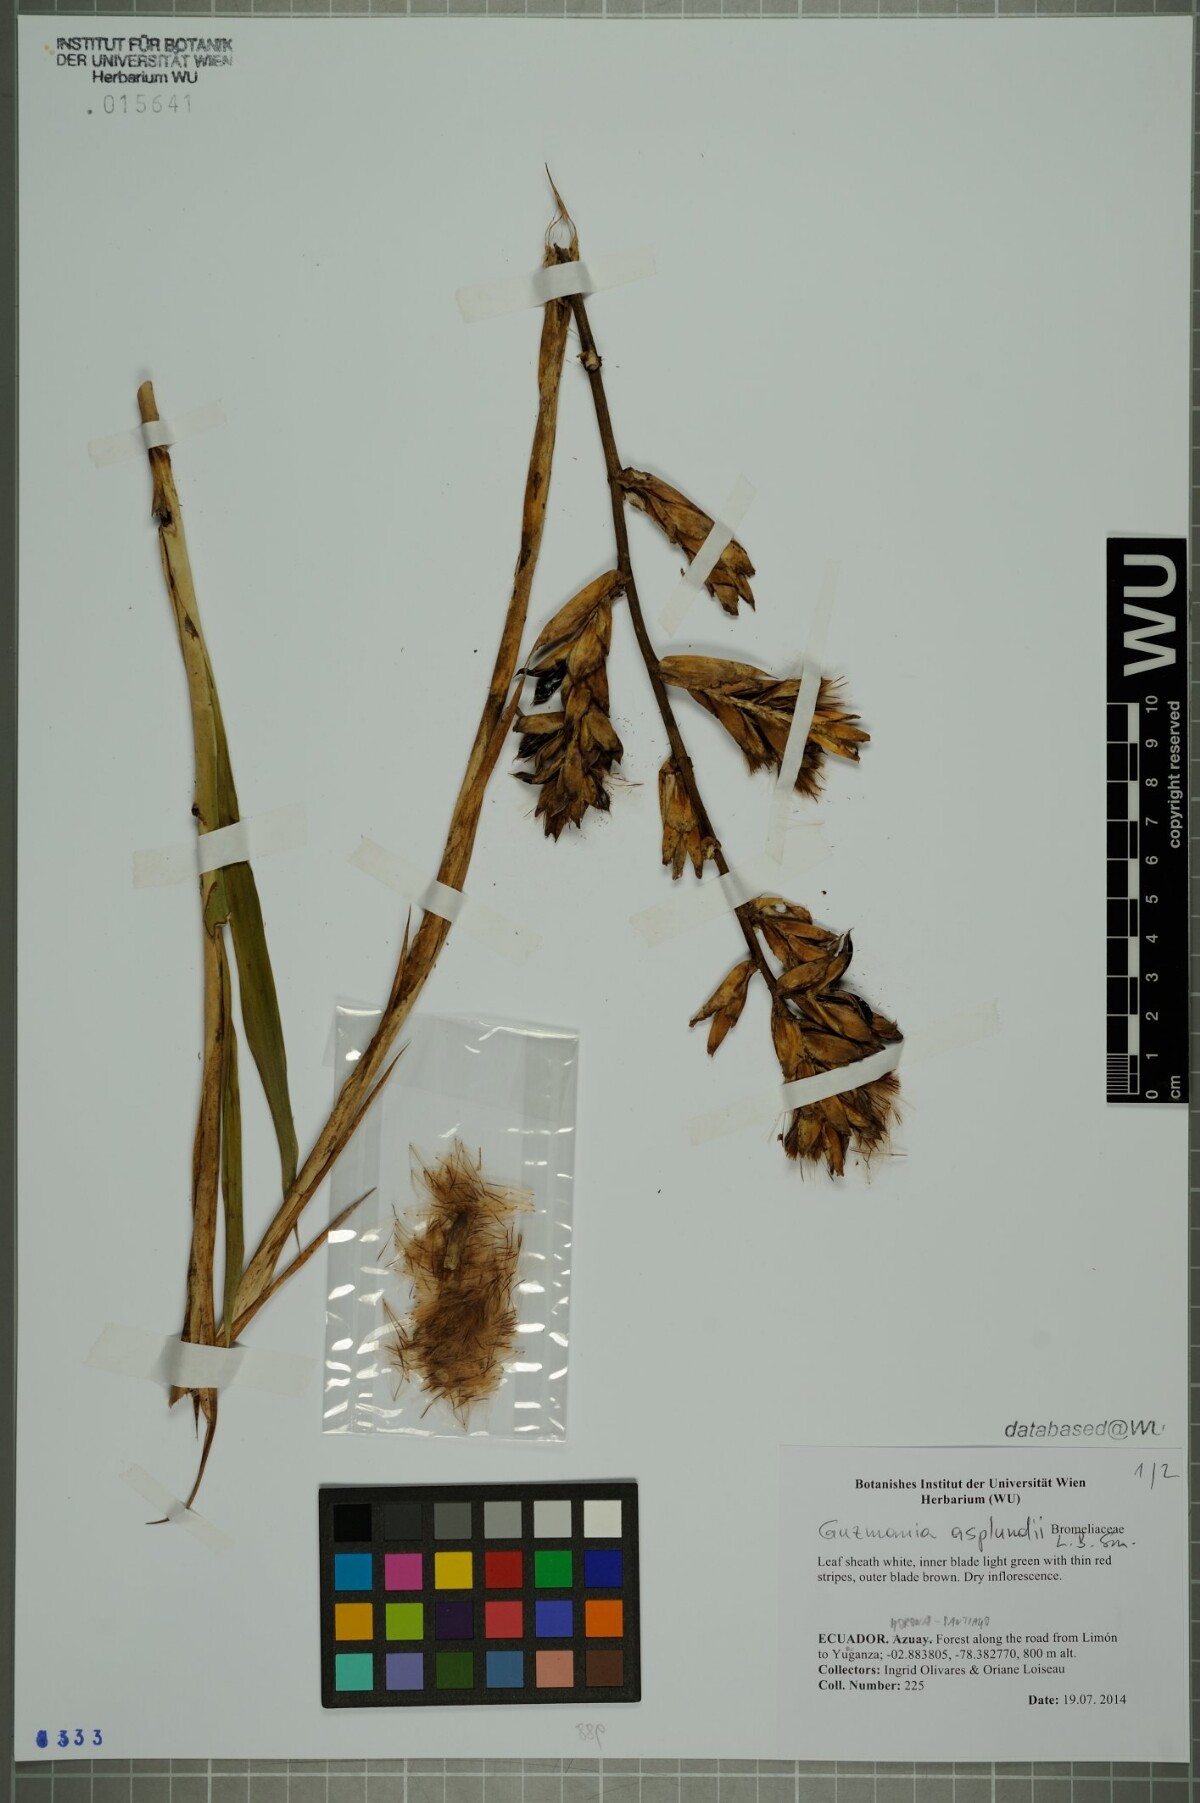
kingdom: Plantae
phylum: Tracheophyta
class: Liliopsida
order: Poales
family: Bromeliaceae
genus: Guzmania
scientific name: Guzmania asplundii
